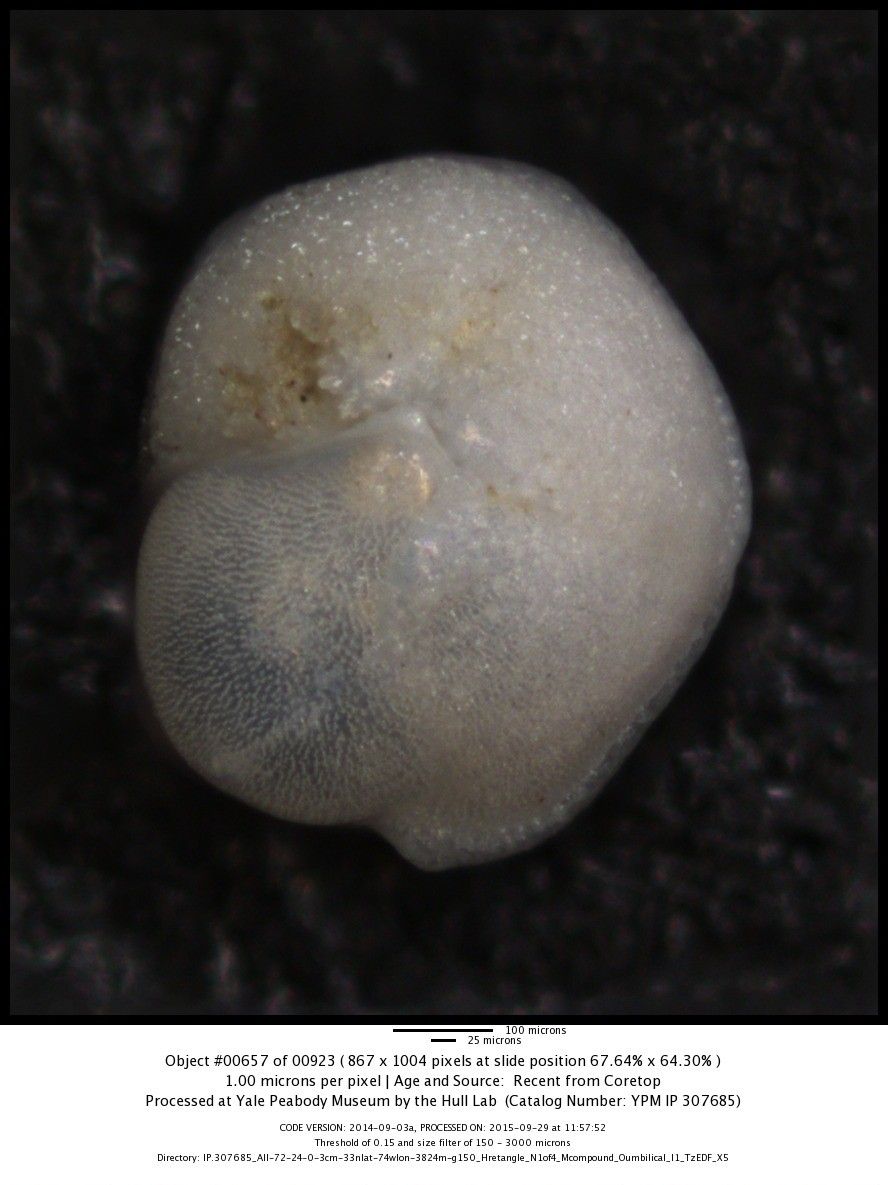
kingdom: Chromista
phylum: Foraminifera
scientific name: Foraminifera
